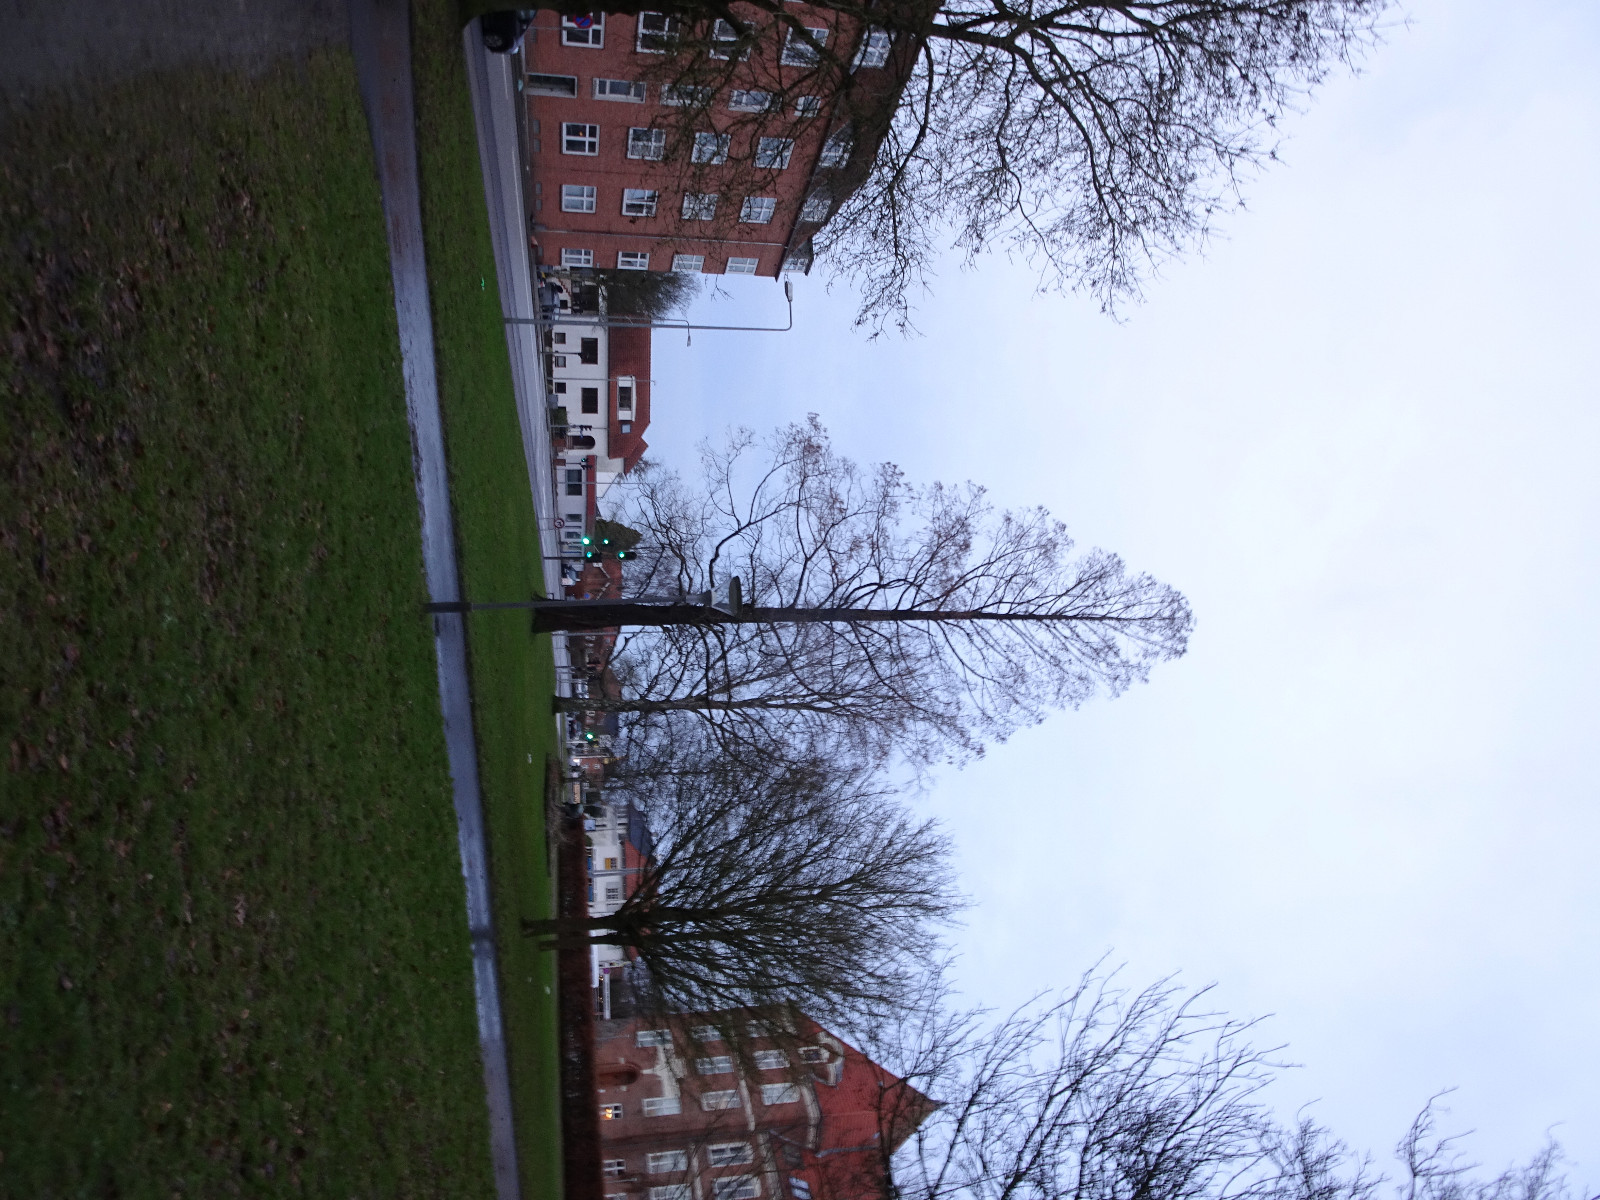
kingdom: Fungi
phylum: Basidiomycota
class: Agaricomycetes
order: Agaricales
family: Porotheleaceae
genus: Phloeomana
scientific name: Phloeomana
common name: huesvamp
